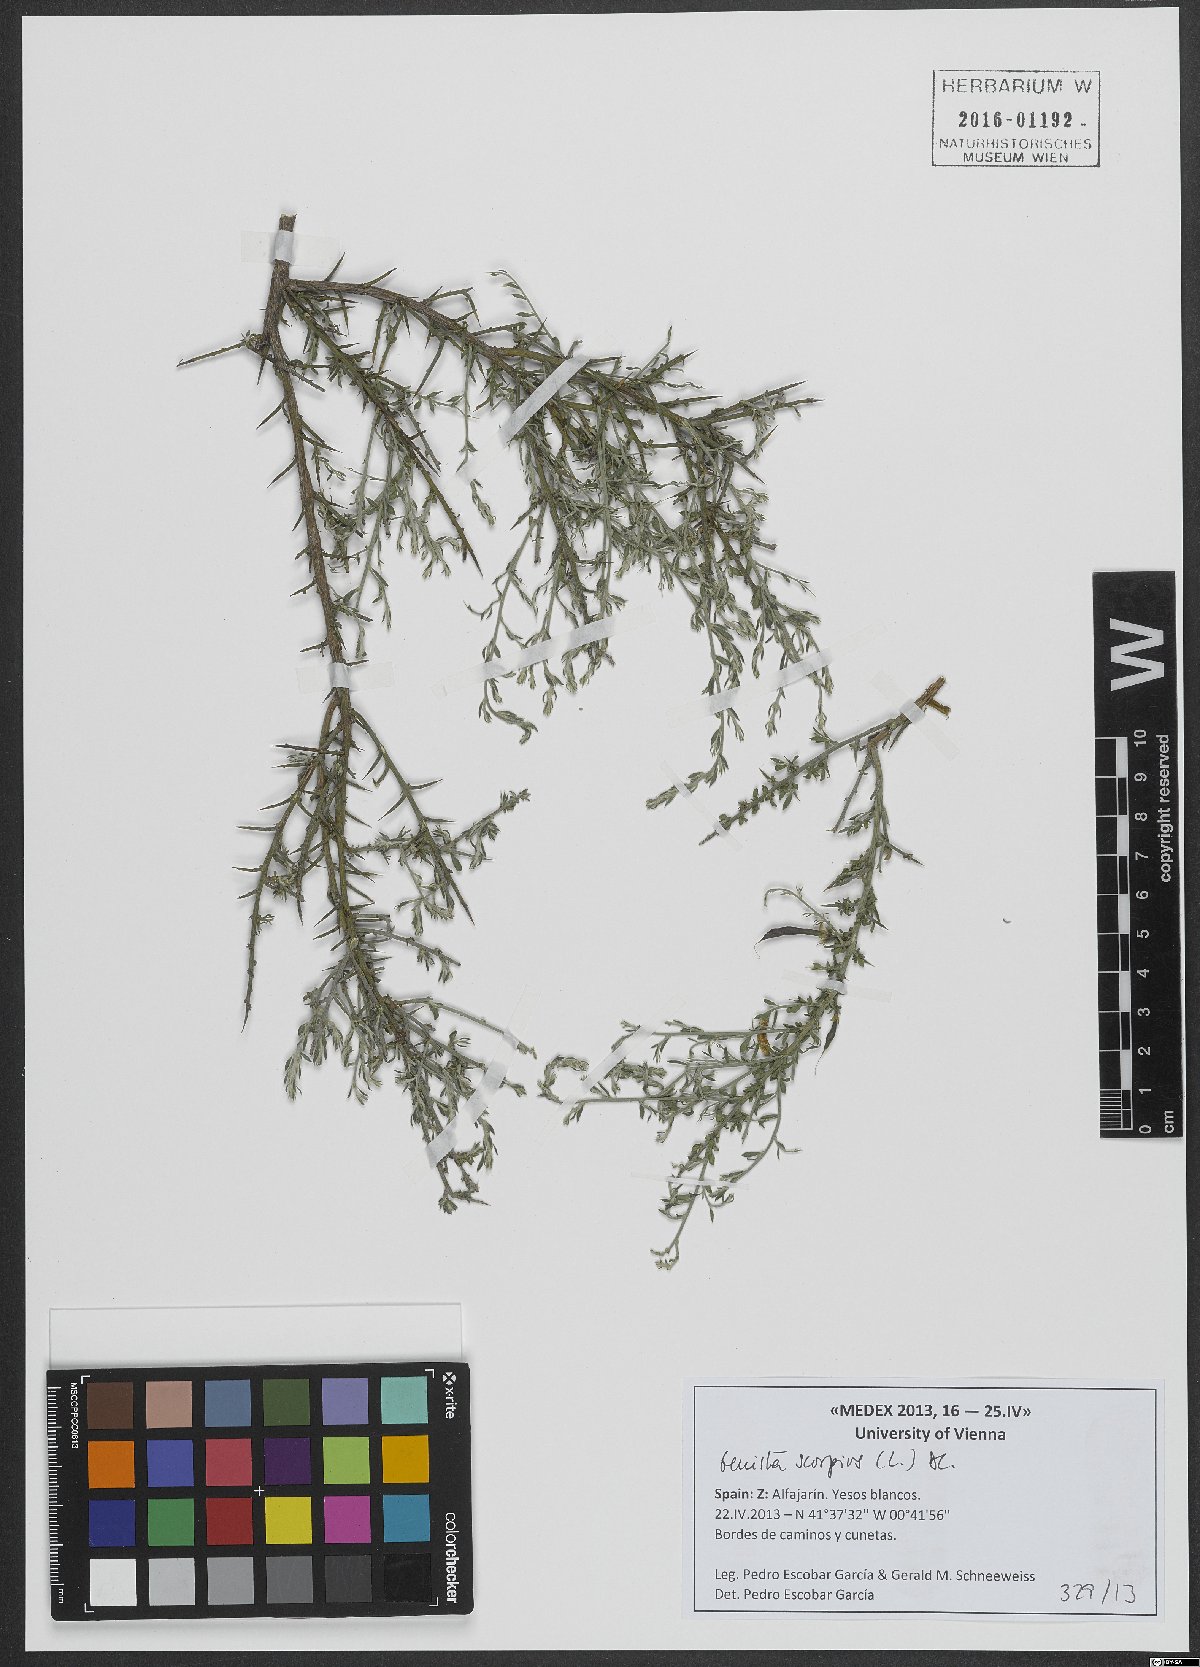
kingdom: Plantae
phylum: Tracheophyta
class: Magnoliopsida
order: Fabales
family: Fabaceae
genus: Genista
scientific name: Genista scorpius
